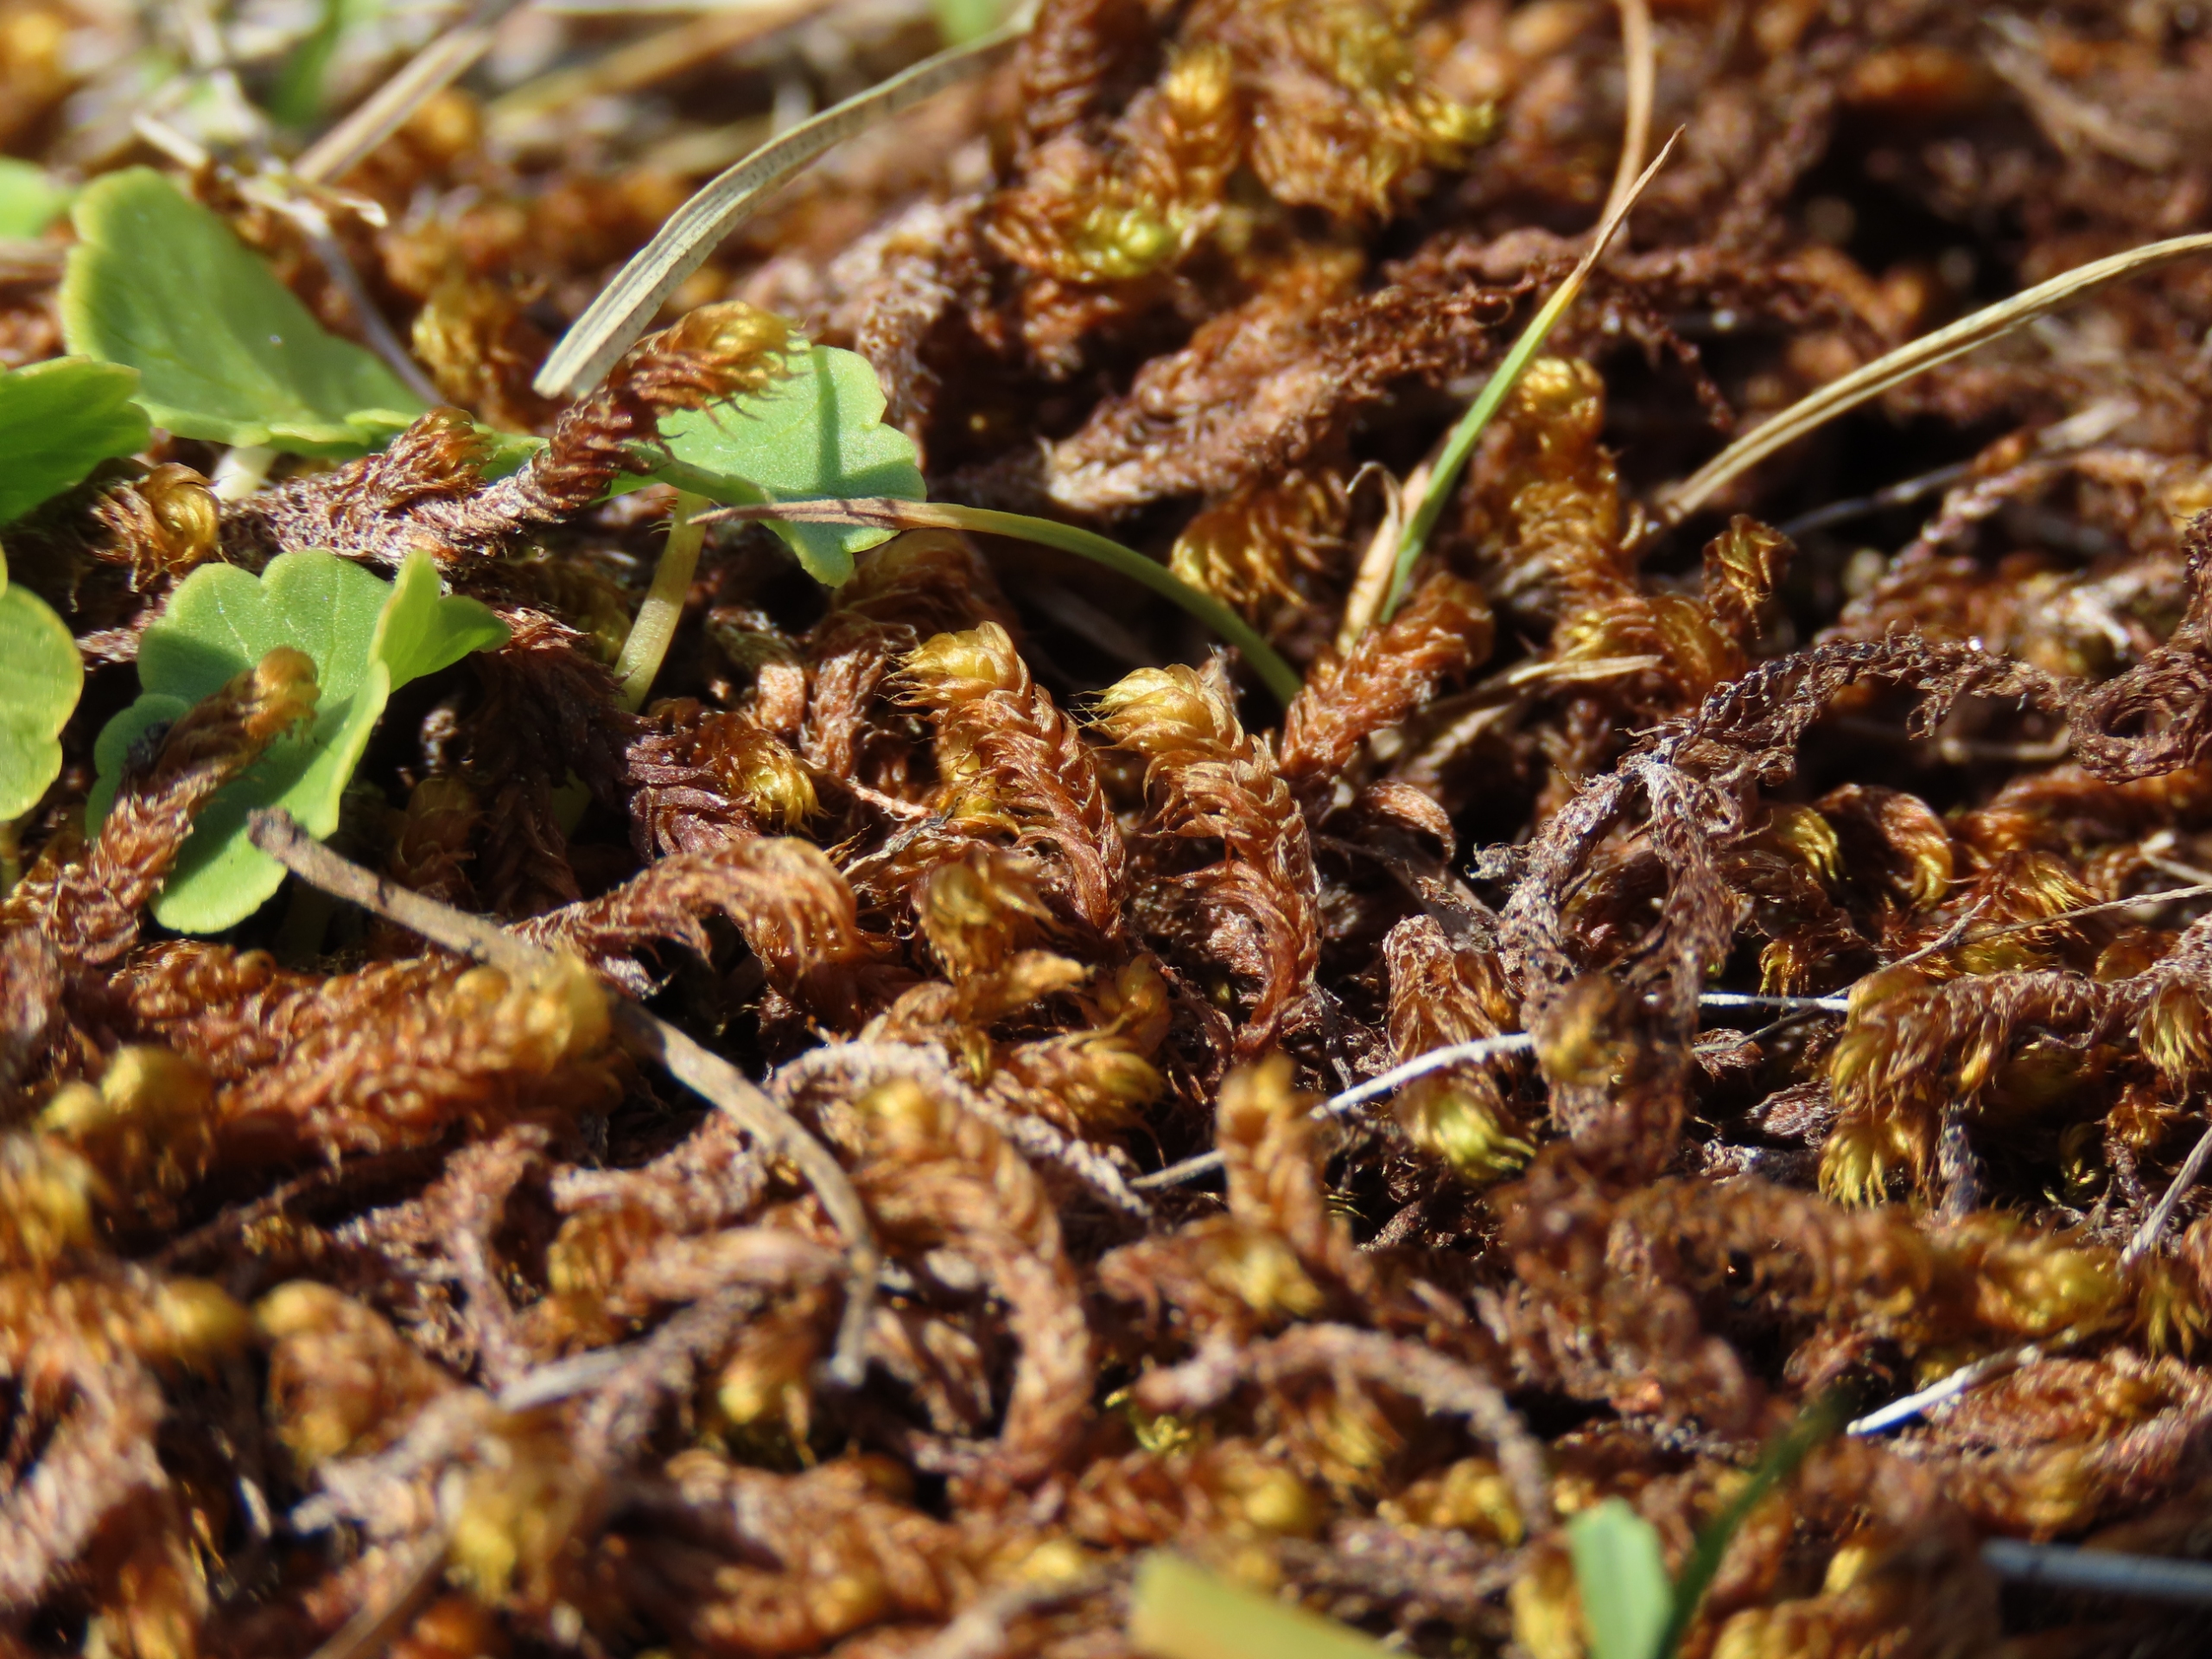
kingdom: Plantae
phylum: Bryophyta
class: Bryopsida
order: Hypnales
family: Amblystegiaceae
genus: Drepanocladus
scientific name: Drepanocladus lycopodioides
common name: Blød seglmos
